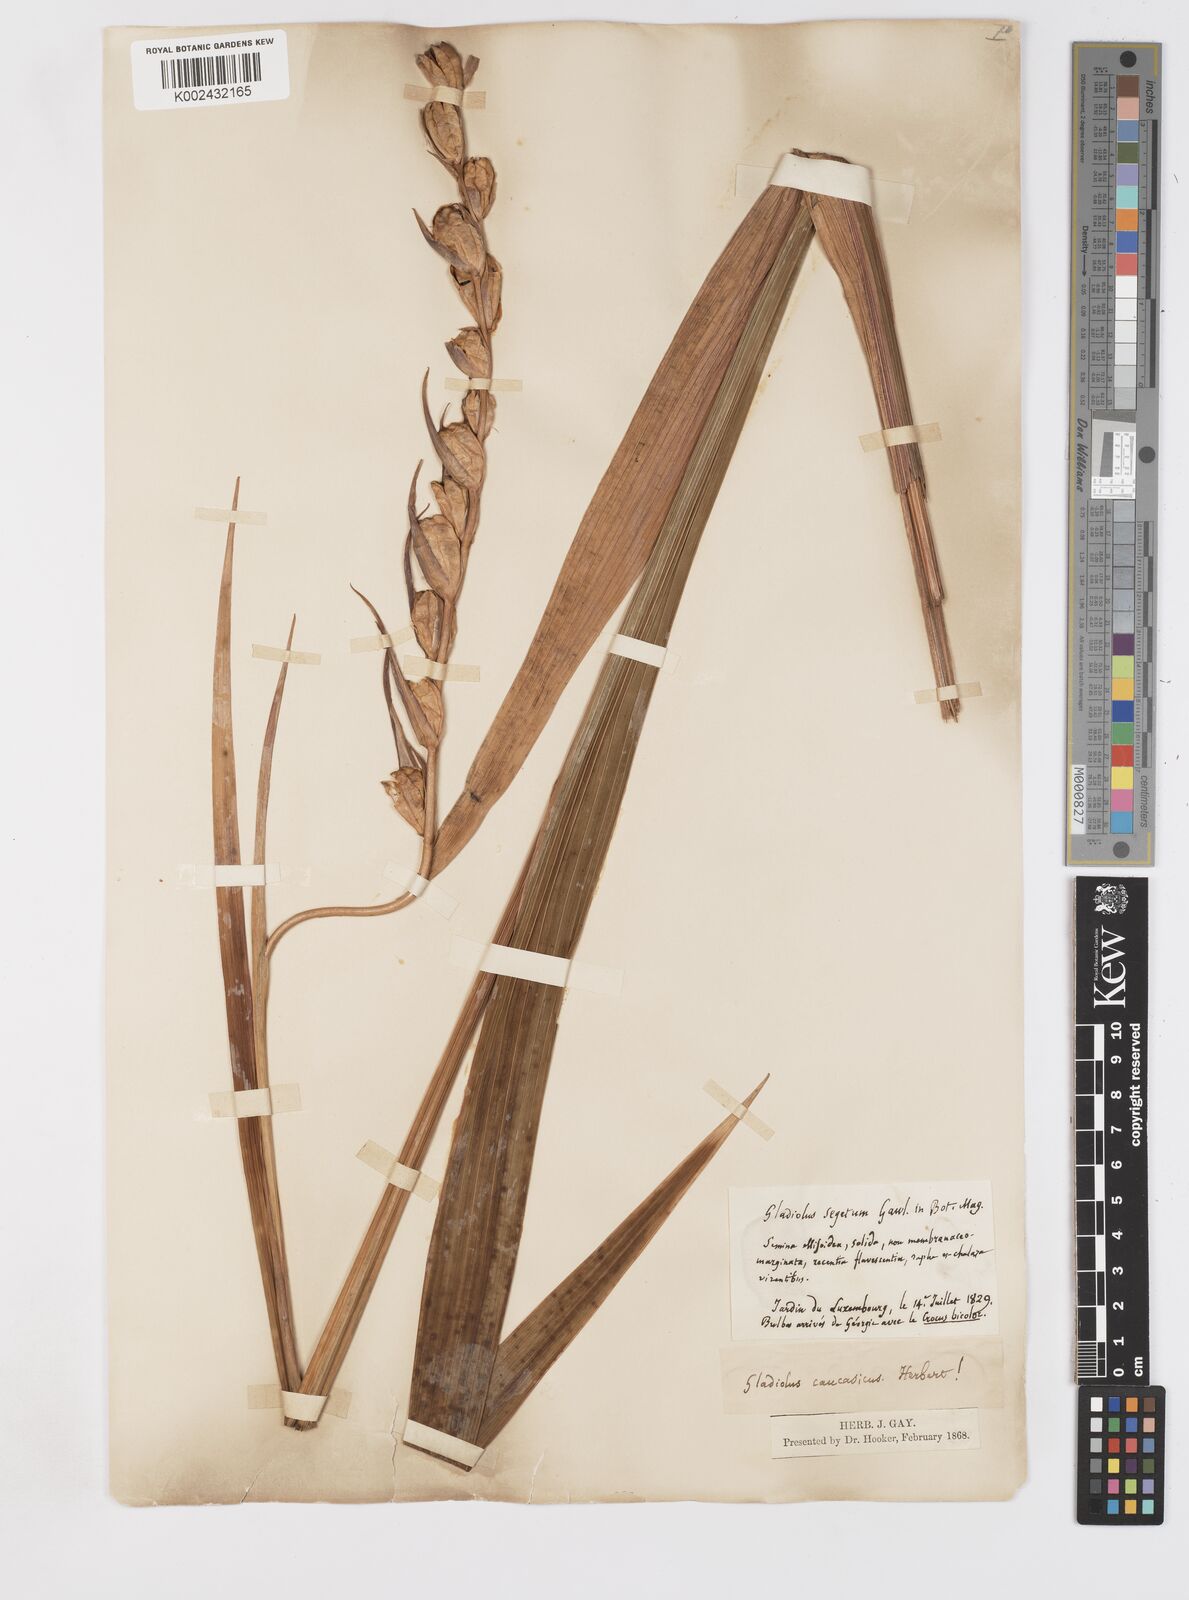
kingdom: Plantae
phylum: Tracheophyta
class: Liliopsida
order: Asparagales
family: Iridaceae
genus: Gladiolus
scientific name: Gladiolus italicus
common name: Field gladiolus
